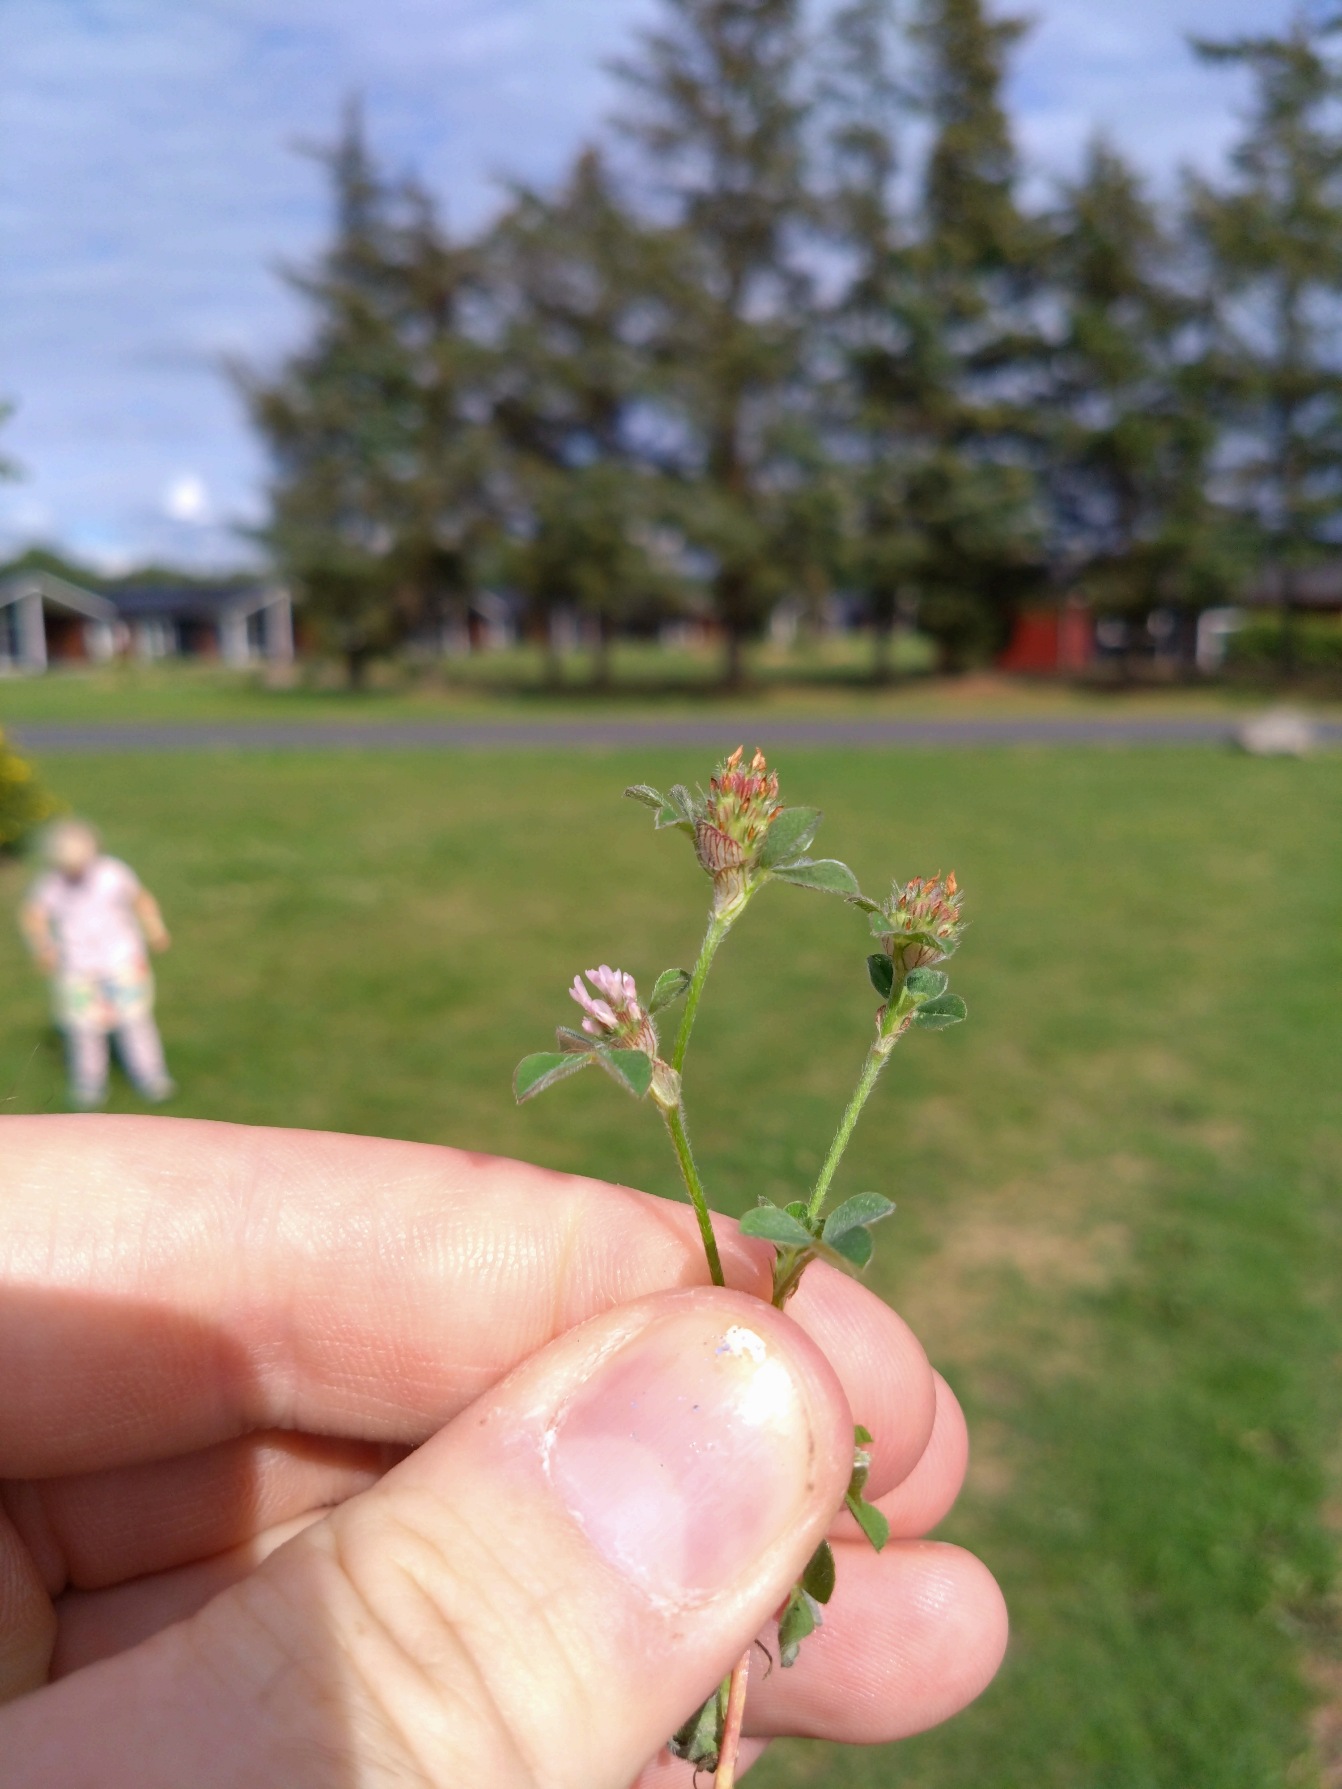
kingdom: Plantae
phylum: Tracheophyta
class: Magnoliopsida
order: Fabales
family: Fabaceae
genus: Trifolium
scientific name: Trifolium striatum
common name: Stribet kløver
